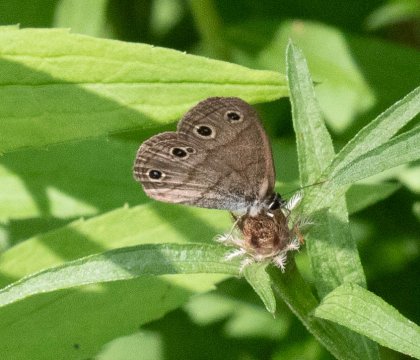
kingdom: Animalia
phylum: Arthropoda
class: Insecta
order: Lepidoptera
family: Nymphalidae
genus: Euptychia
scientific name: Euptychia cymela
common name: Little Wood Satyr
